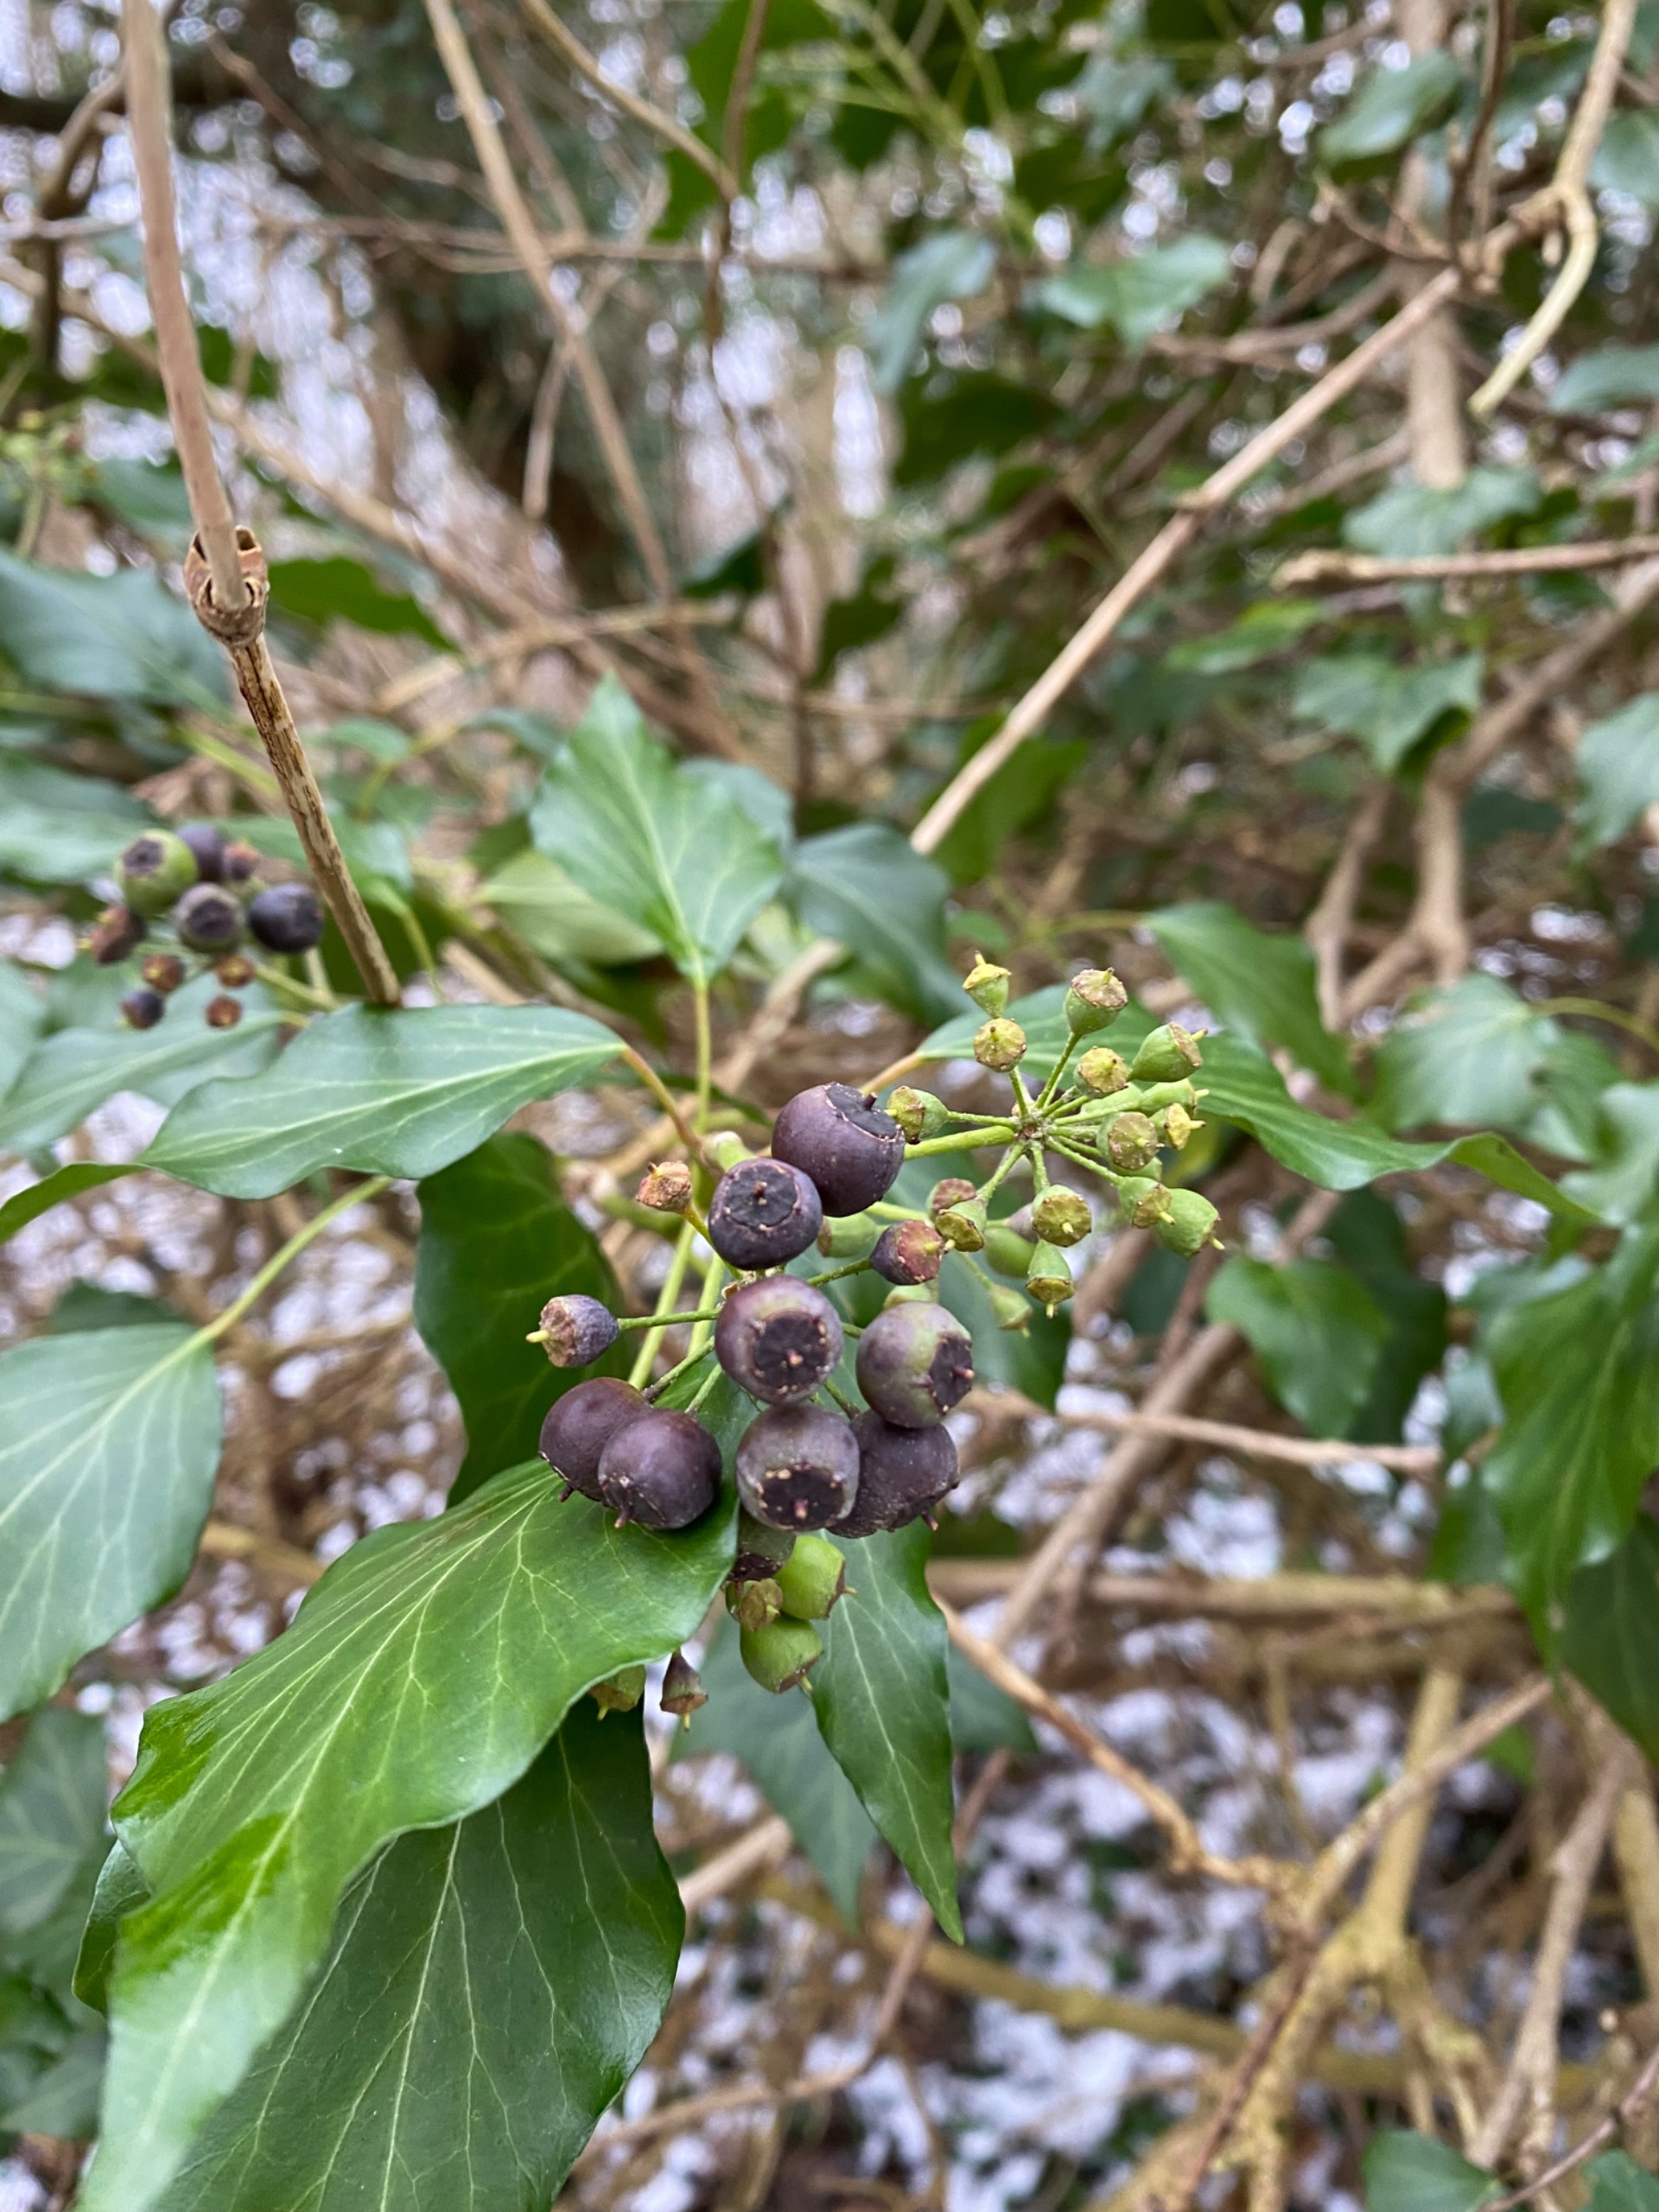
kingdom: Plantae
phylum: Tracheophyta
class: Magnoliopsida
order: Apiales
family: Araliaceae
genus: Hedera
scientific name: Hedera helix
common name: Vedbend
